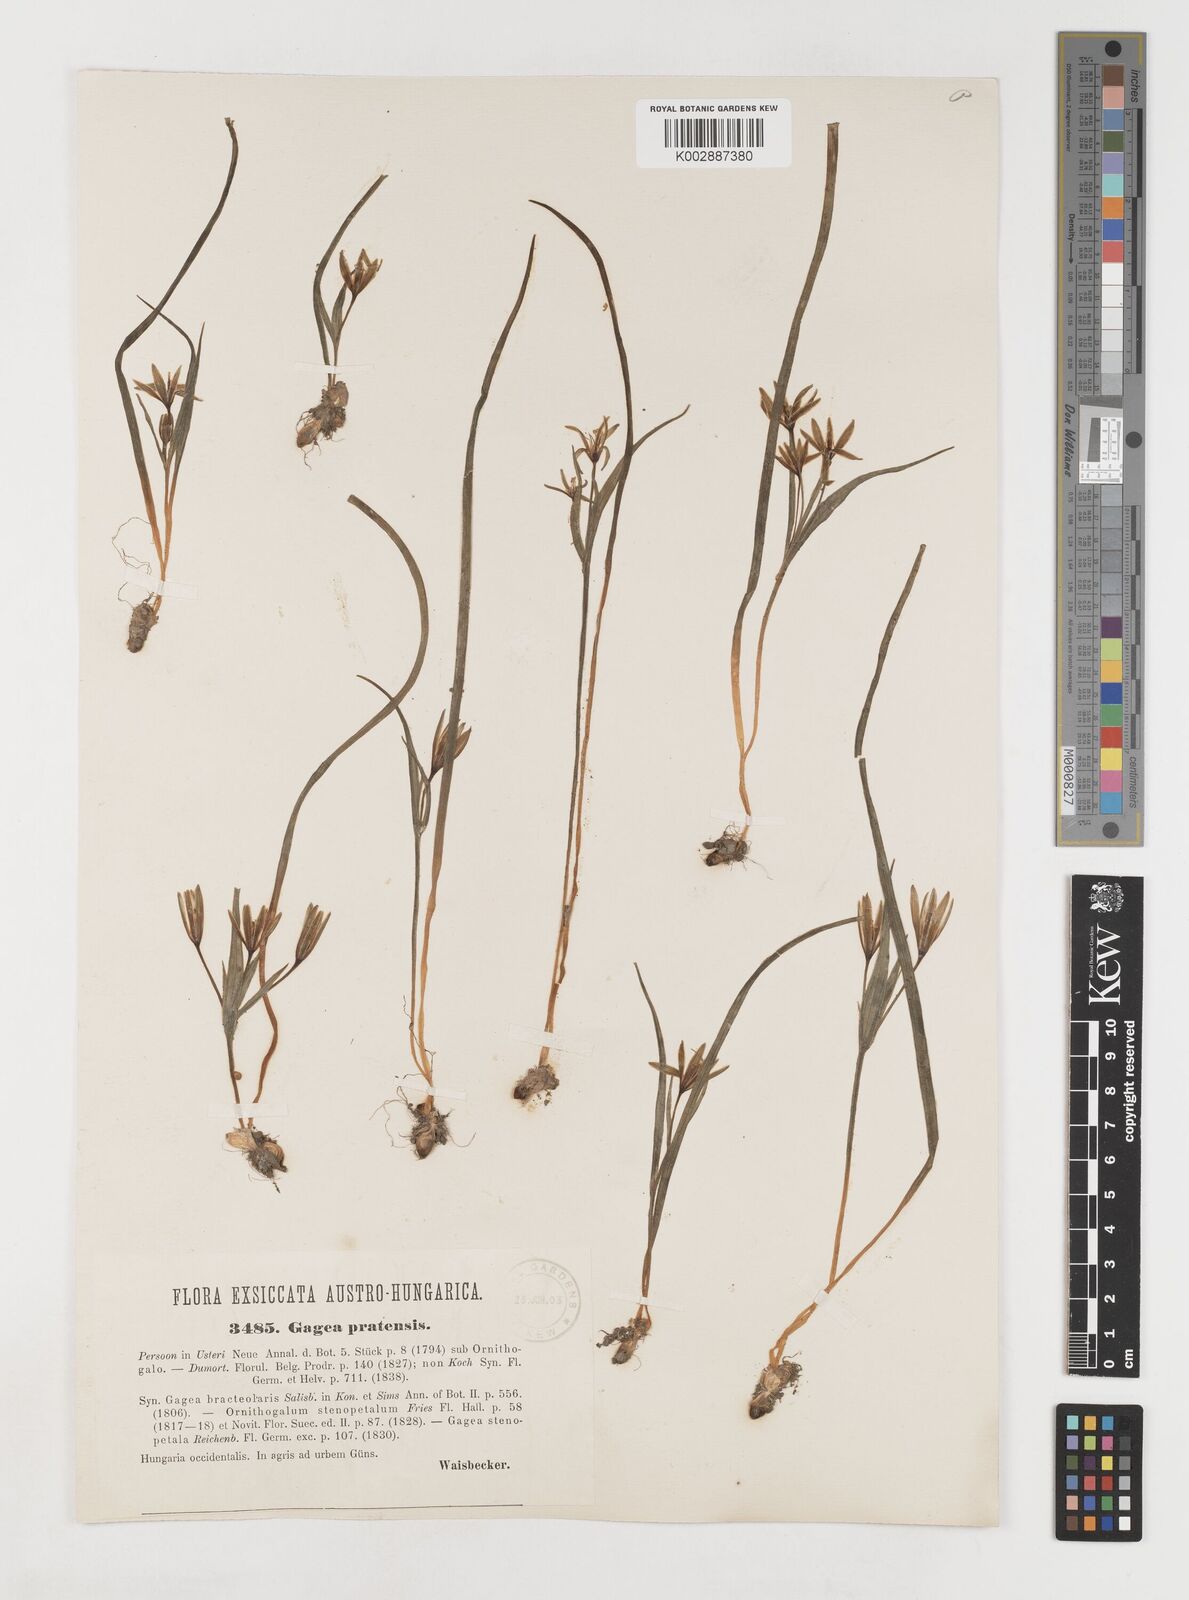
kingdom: Plantae
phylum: Tracheophyta
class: Liliopsida
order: Liliales
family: Liliaceae
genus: Gagea
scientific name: Gagea pratensis
